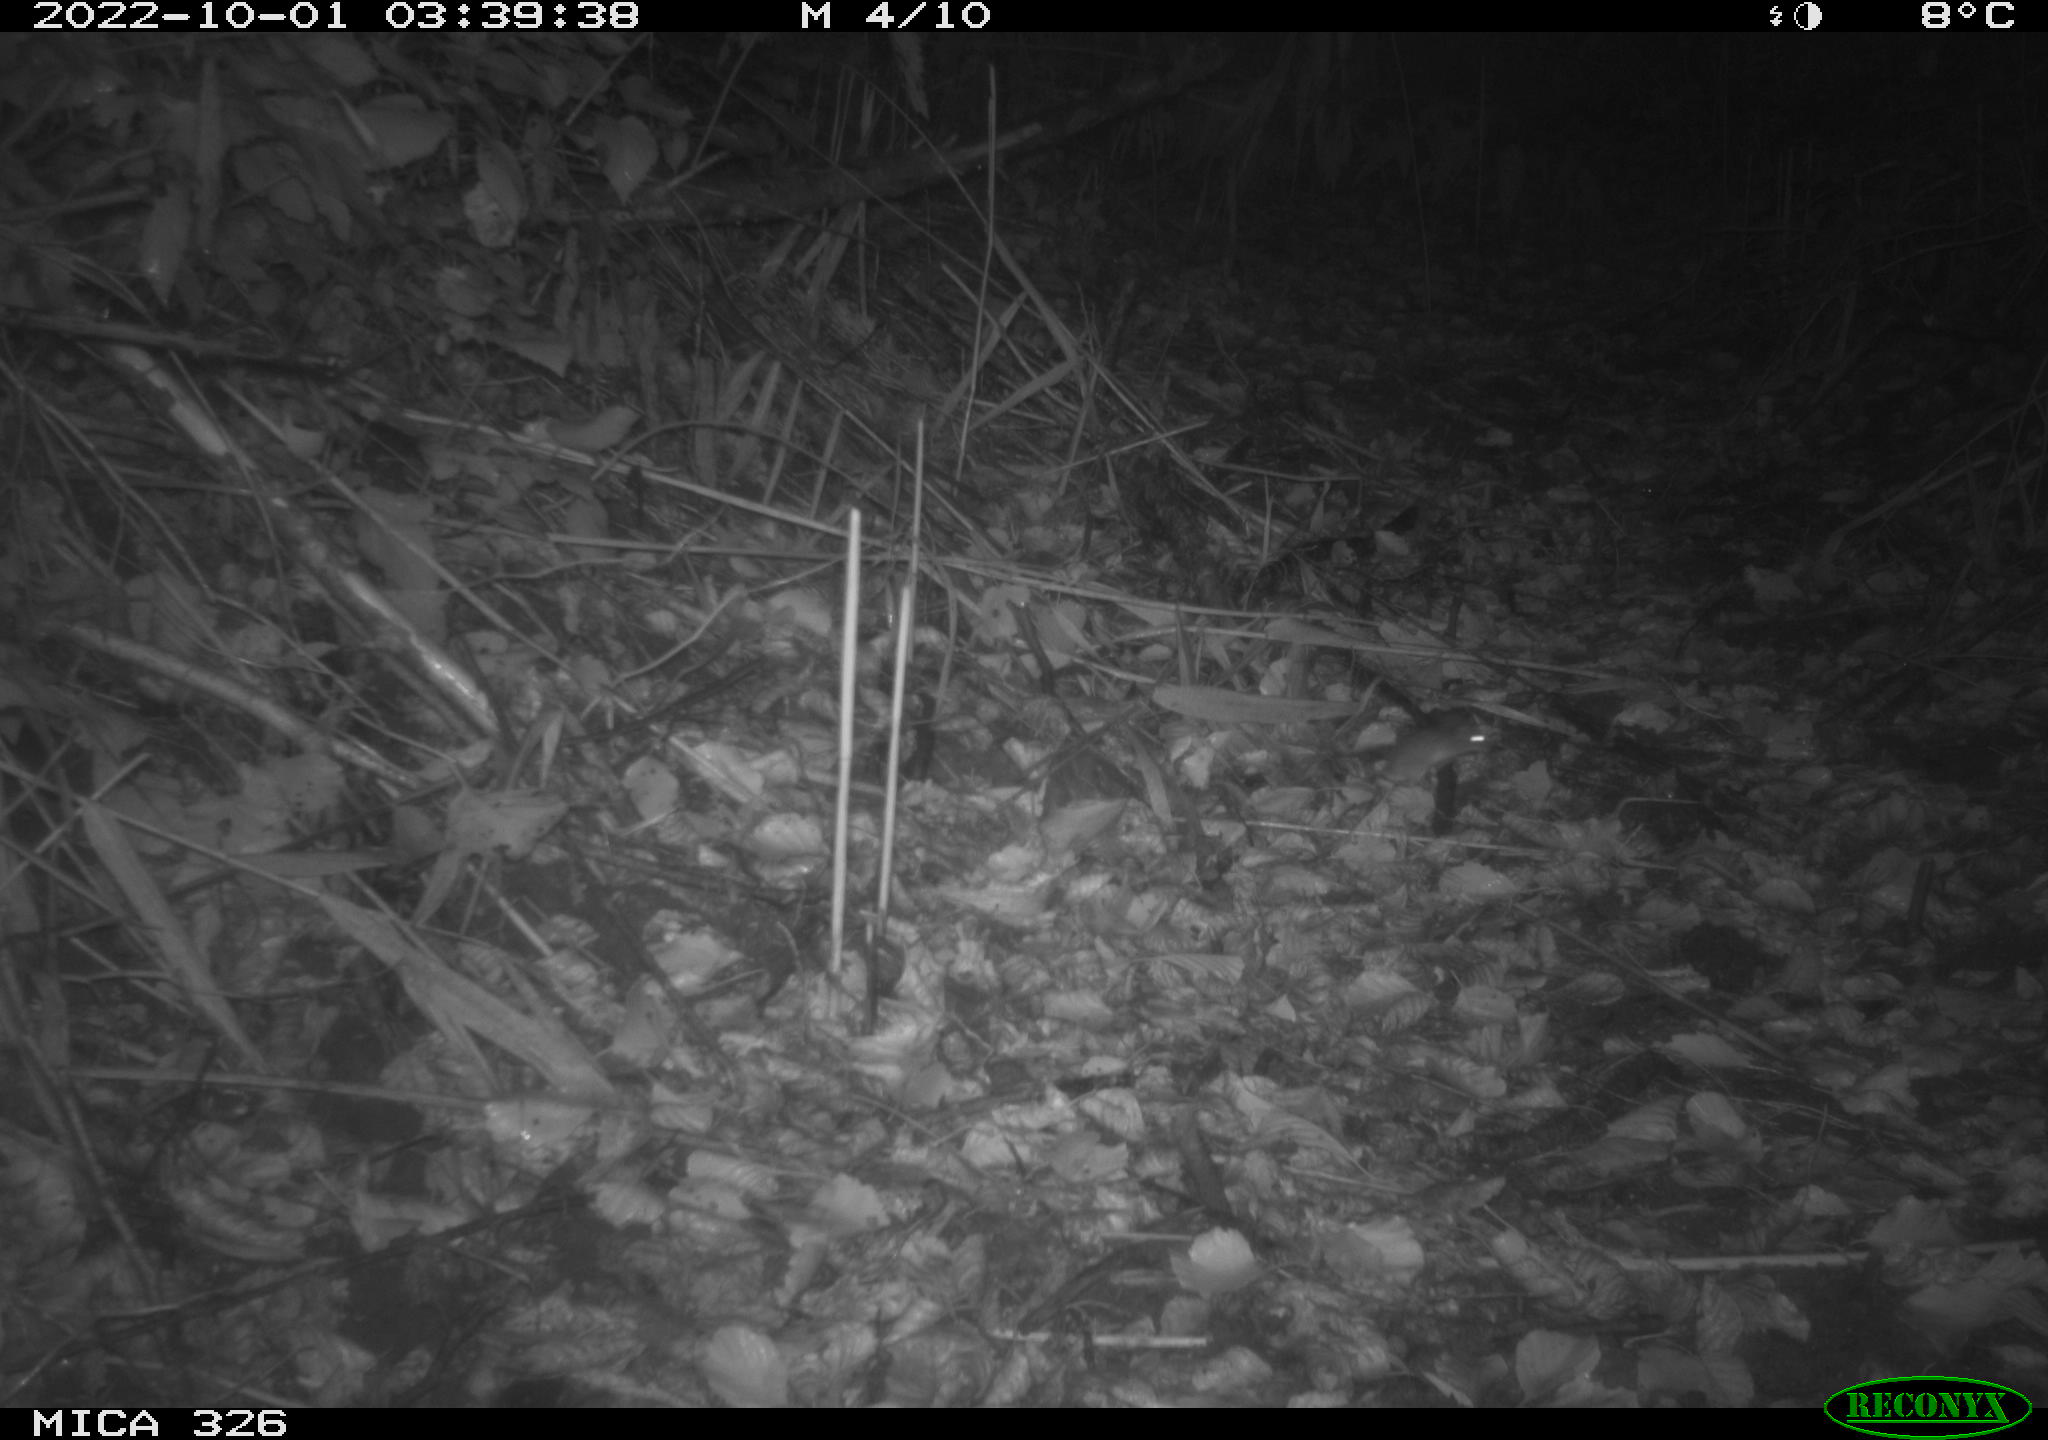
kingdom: Animalia
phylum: Chordata
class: Mammalia
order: Rodentia
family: Muridae
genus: Apodemus
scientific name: Apodemus sylvaticus
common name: Wood mouse
